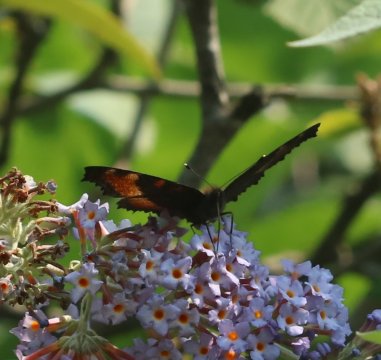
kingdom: Animalia
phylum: Arthropoda
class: Insecta
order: Lepidoptera
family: Nymphalidae
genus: Aglais
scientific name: Aglais milberti
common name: Milbert's Tortoiseshell
